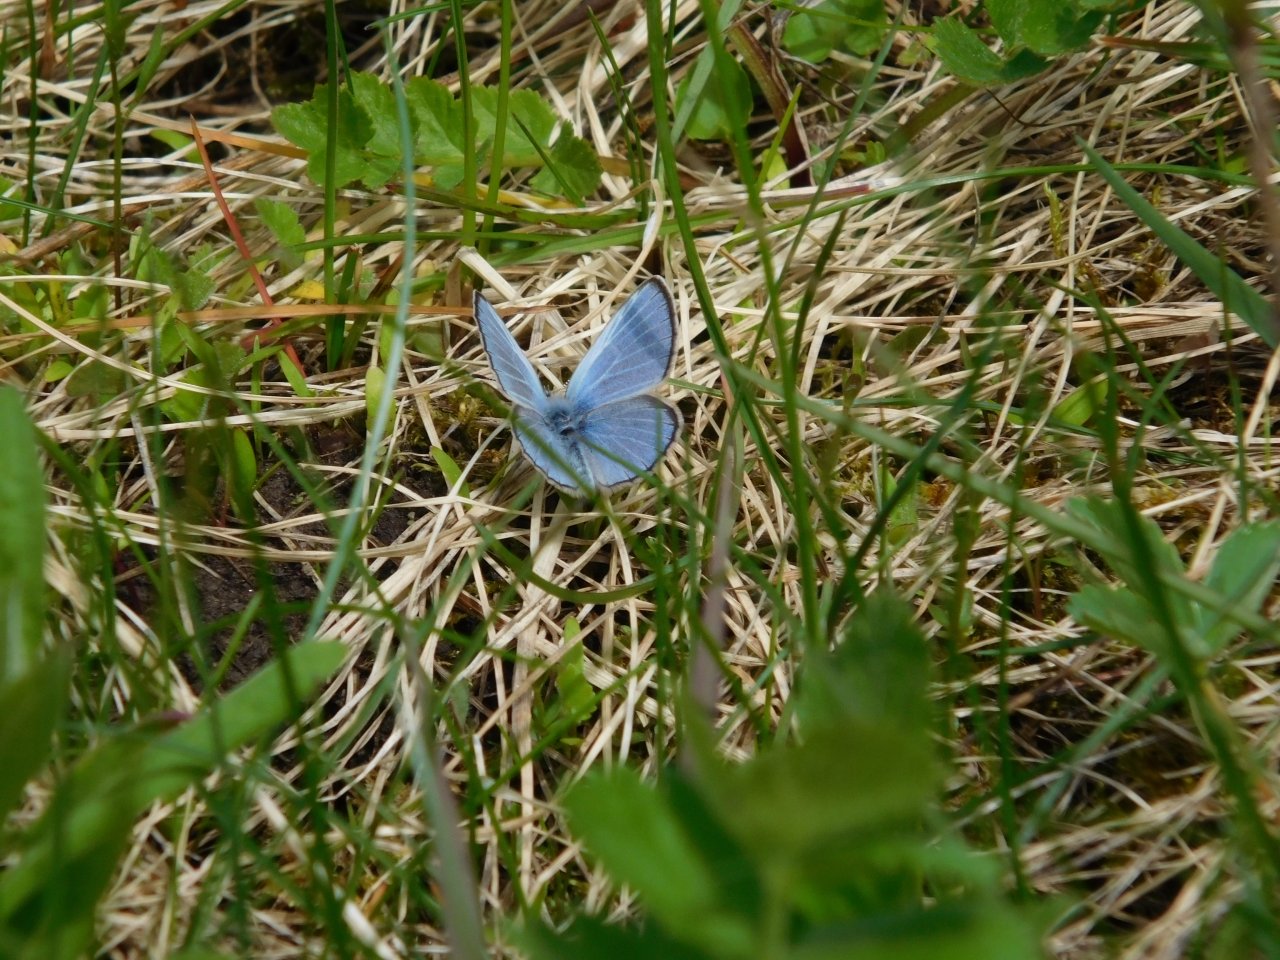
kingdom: Animalia
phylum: Arthropoda
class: Insecta
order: Lepidoptera
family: Lycaenidae
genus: Glaucopsyche
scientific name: Glaucopsyche lygdamus
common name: Silvery Blue
